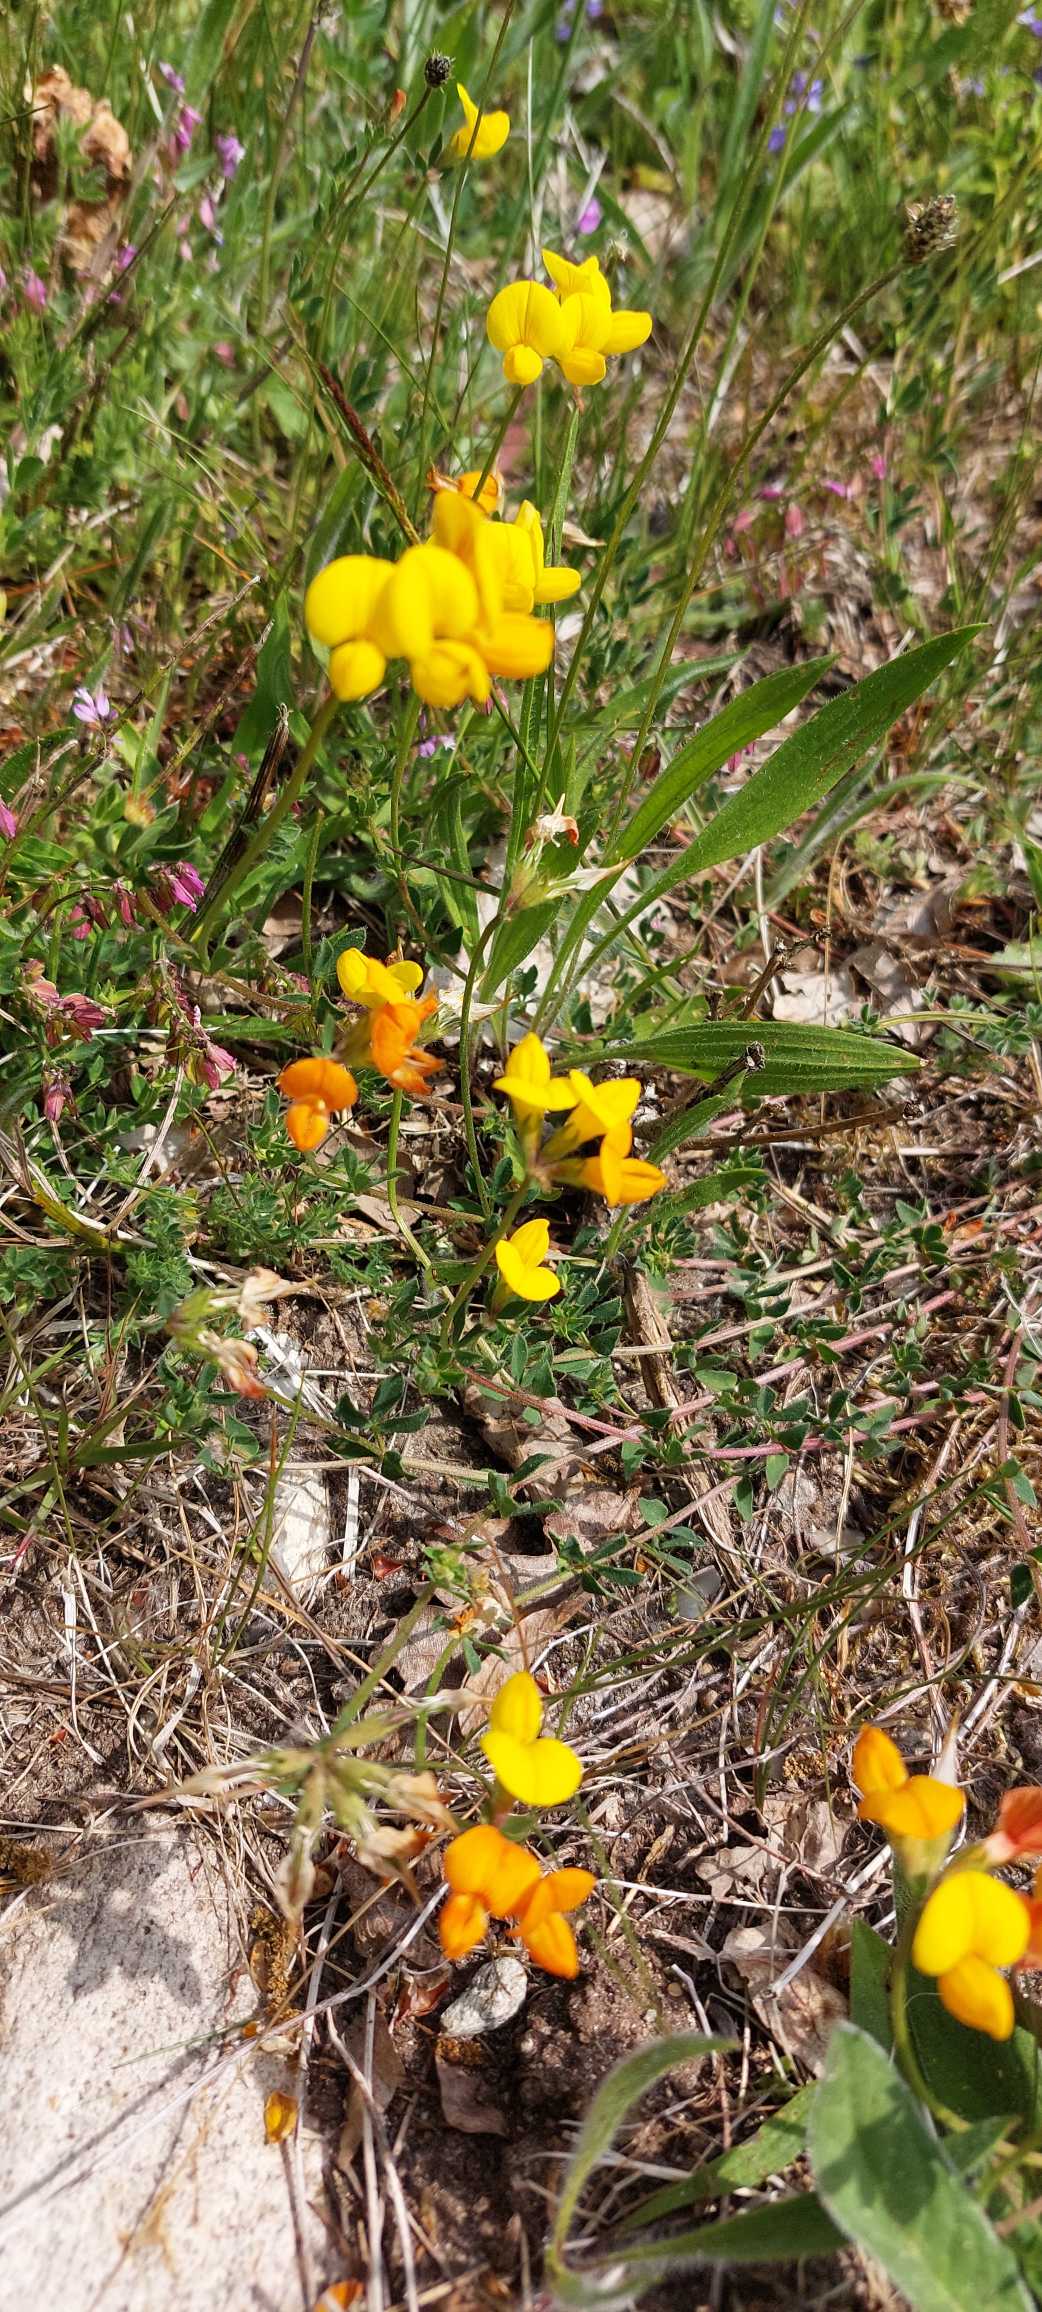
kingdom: Plantae
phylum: Tracheophyta
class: Magnoliopsida
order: Fabales
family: Fabaceae
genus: Lotus
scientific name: Lotus corniculatus
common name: Almindelig kællingetand
